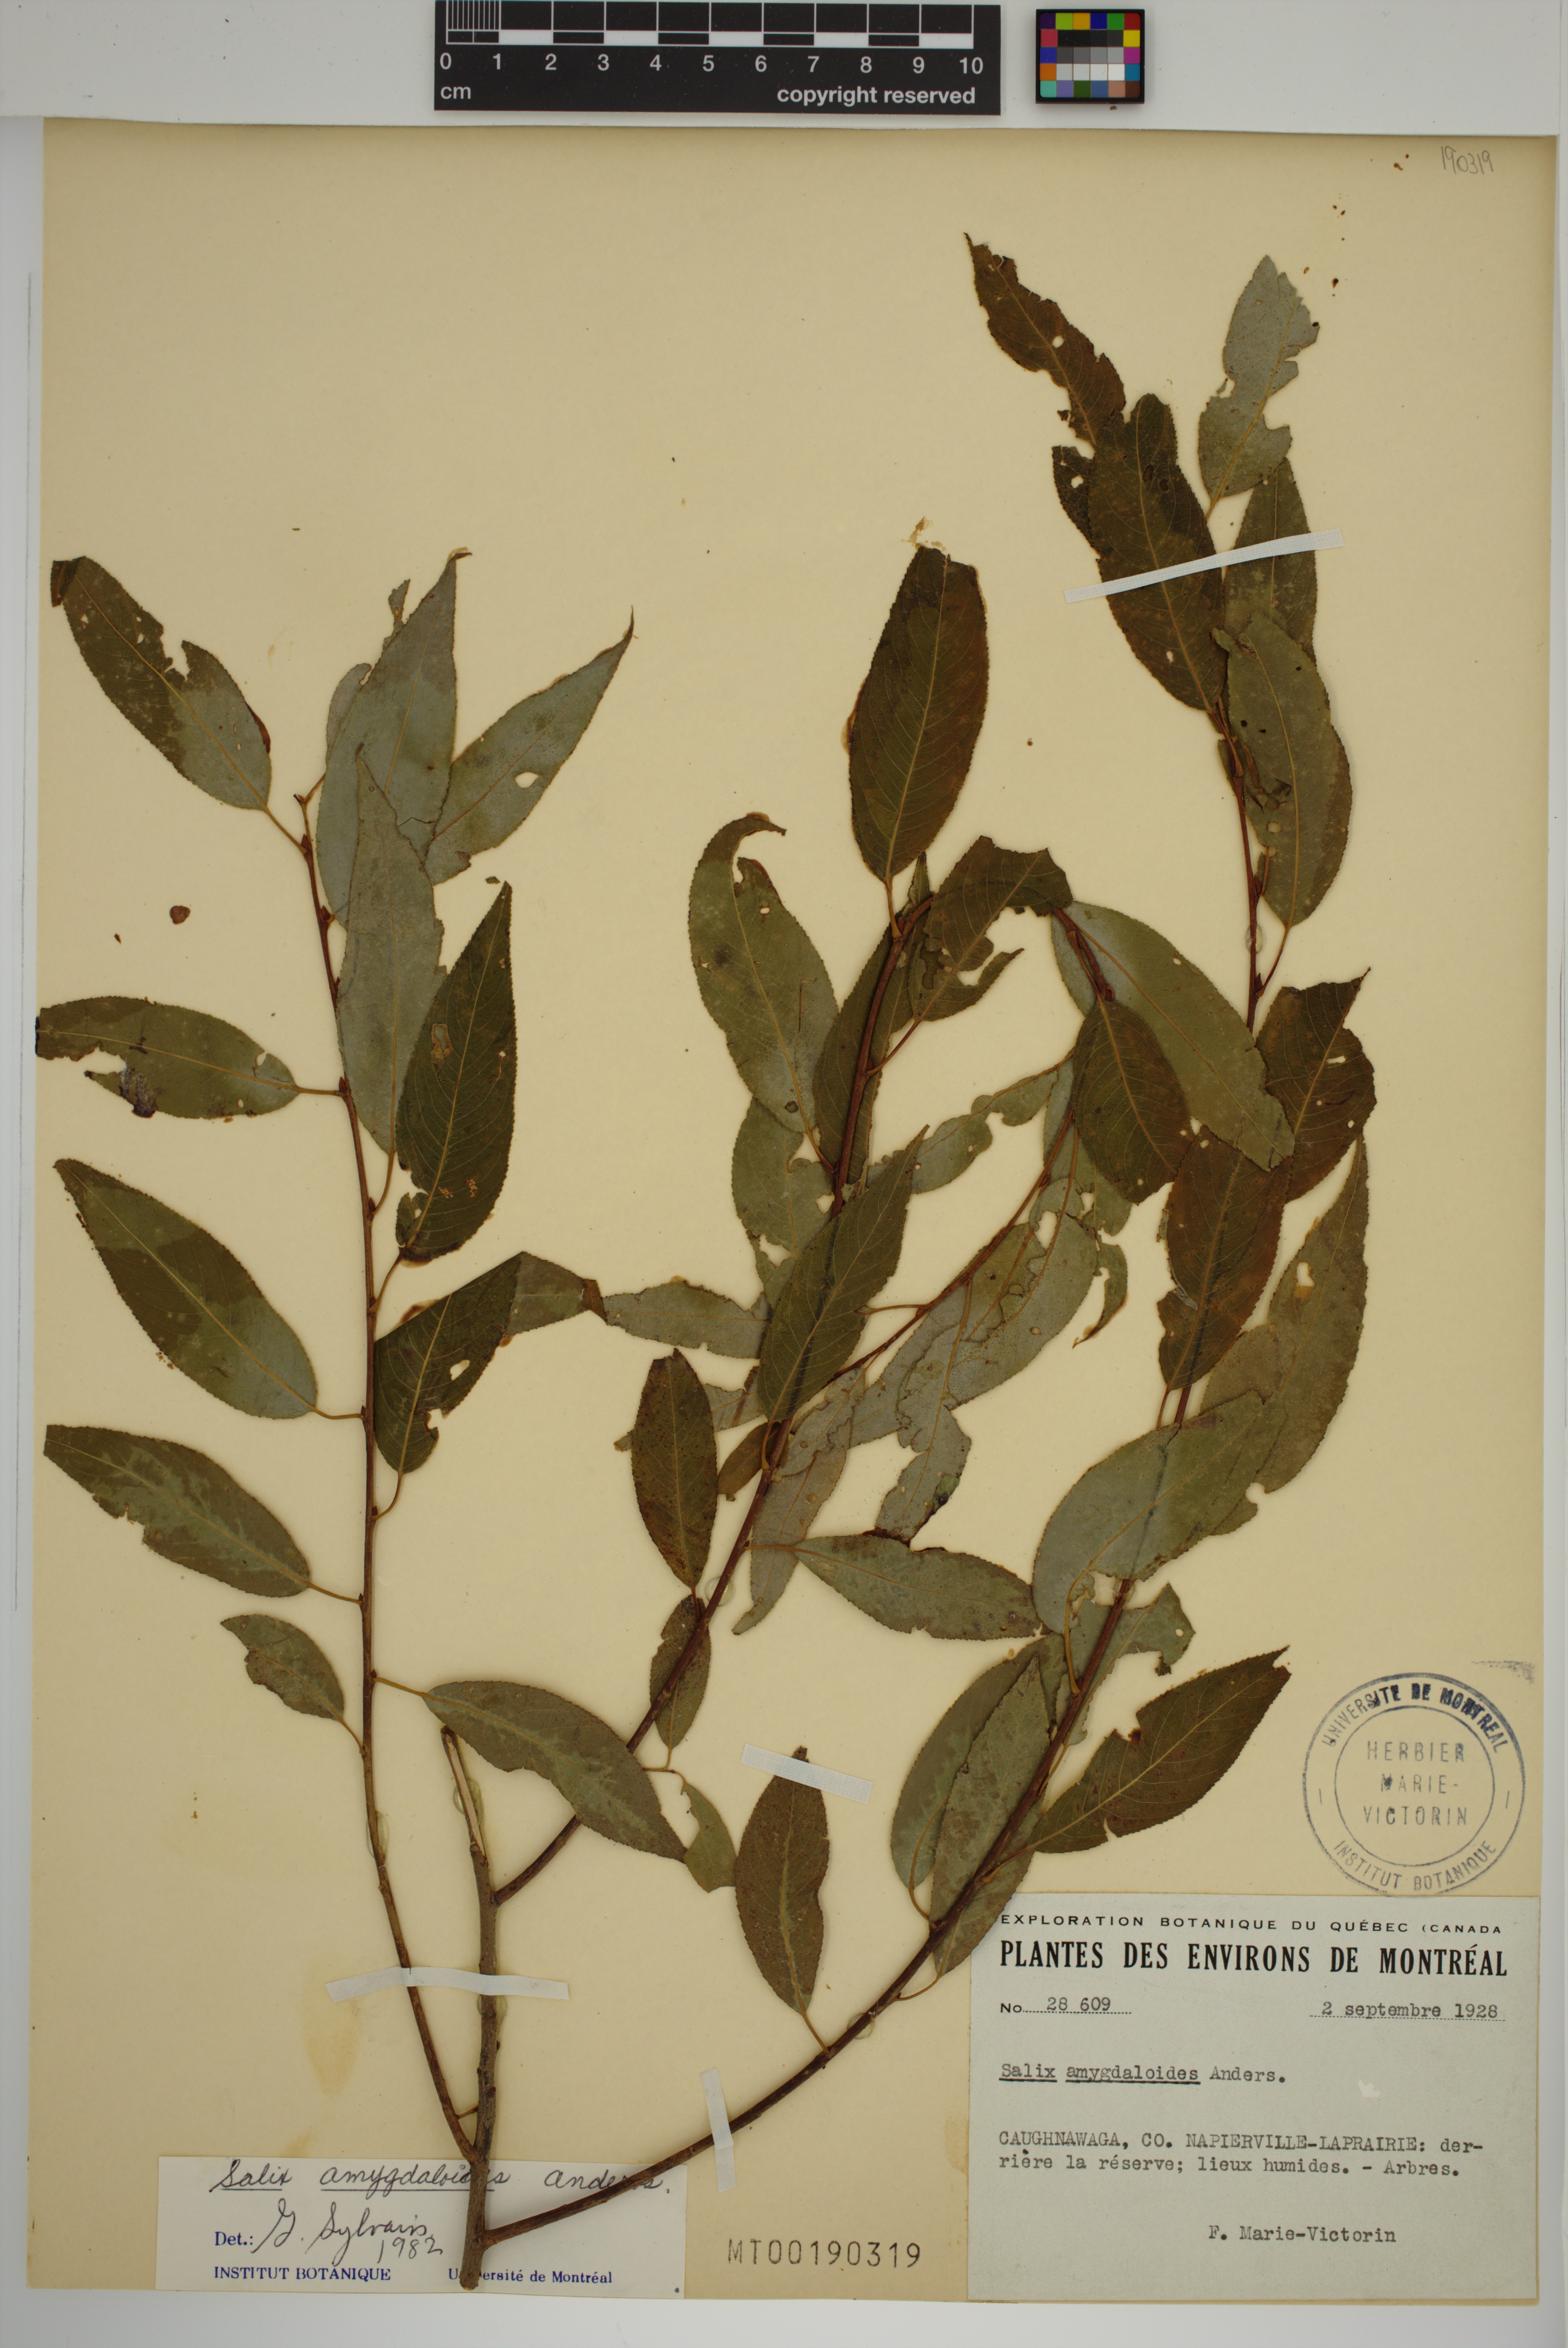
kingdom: Plantae
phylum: Tracheophyta
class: Magnoliopsida
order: Malpighiales
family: Salicaceae
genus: Salix
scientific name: Salix amygdaloides
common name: Peach leaf willow
